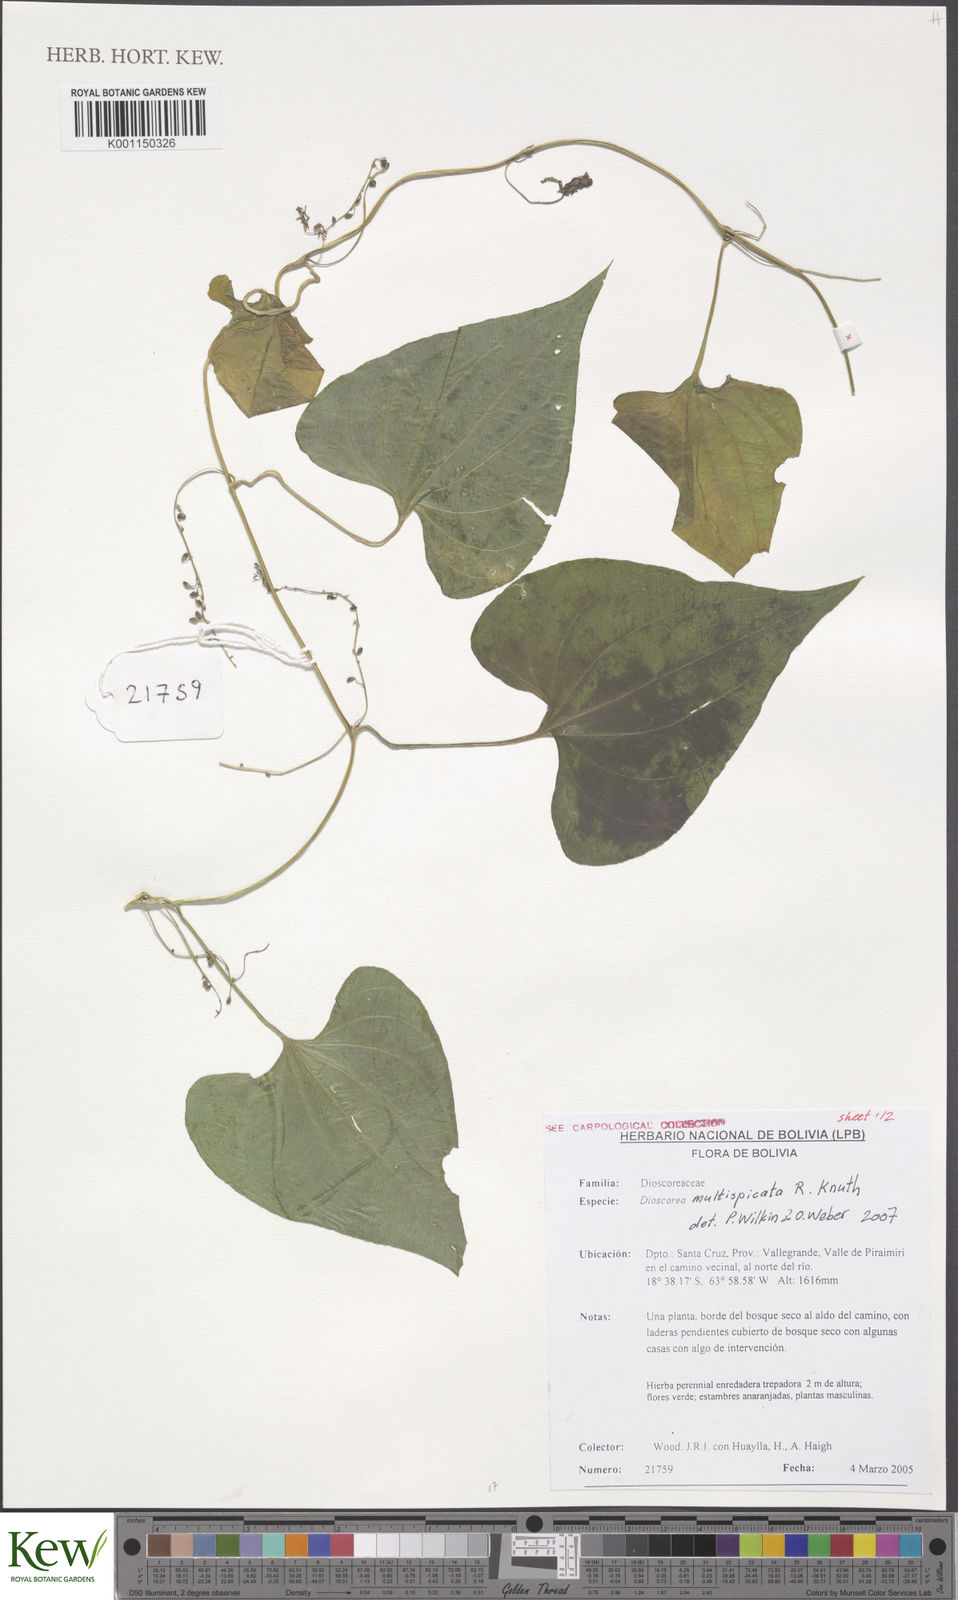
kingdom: Plantae
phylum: Tracheophyta
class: Liliopsida
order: Dioscoreales
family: Dioscoreaceae
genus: Dioscorea
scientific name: Dioscorea multispicata
